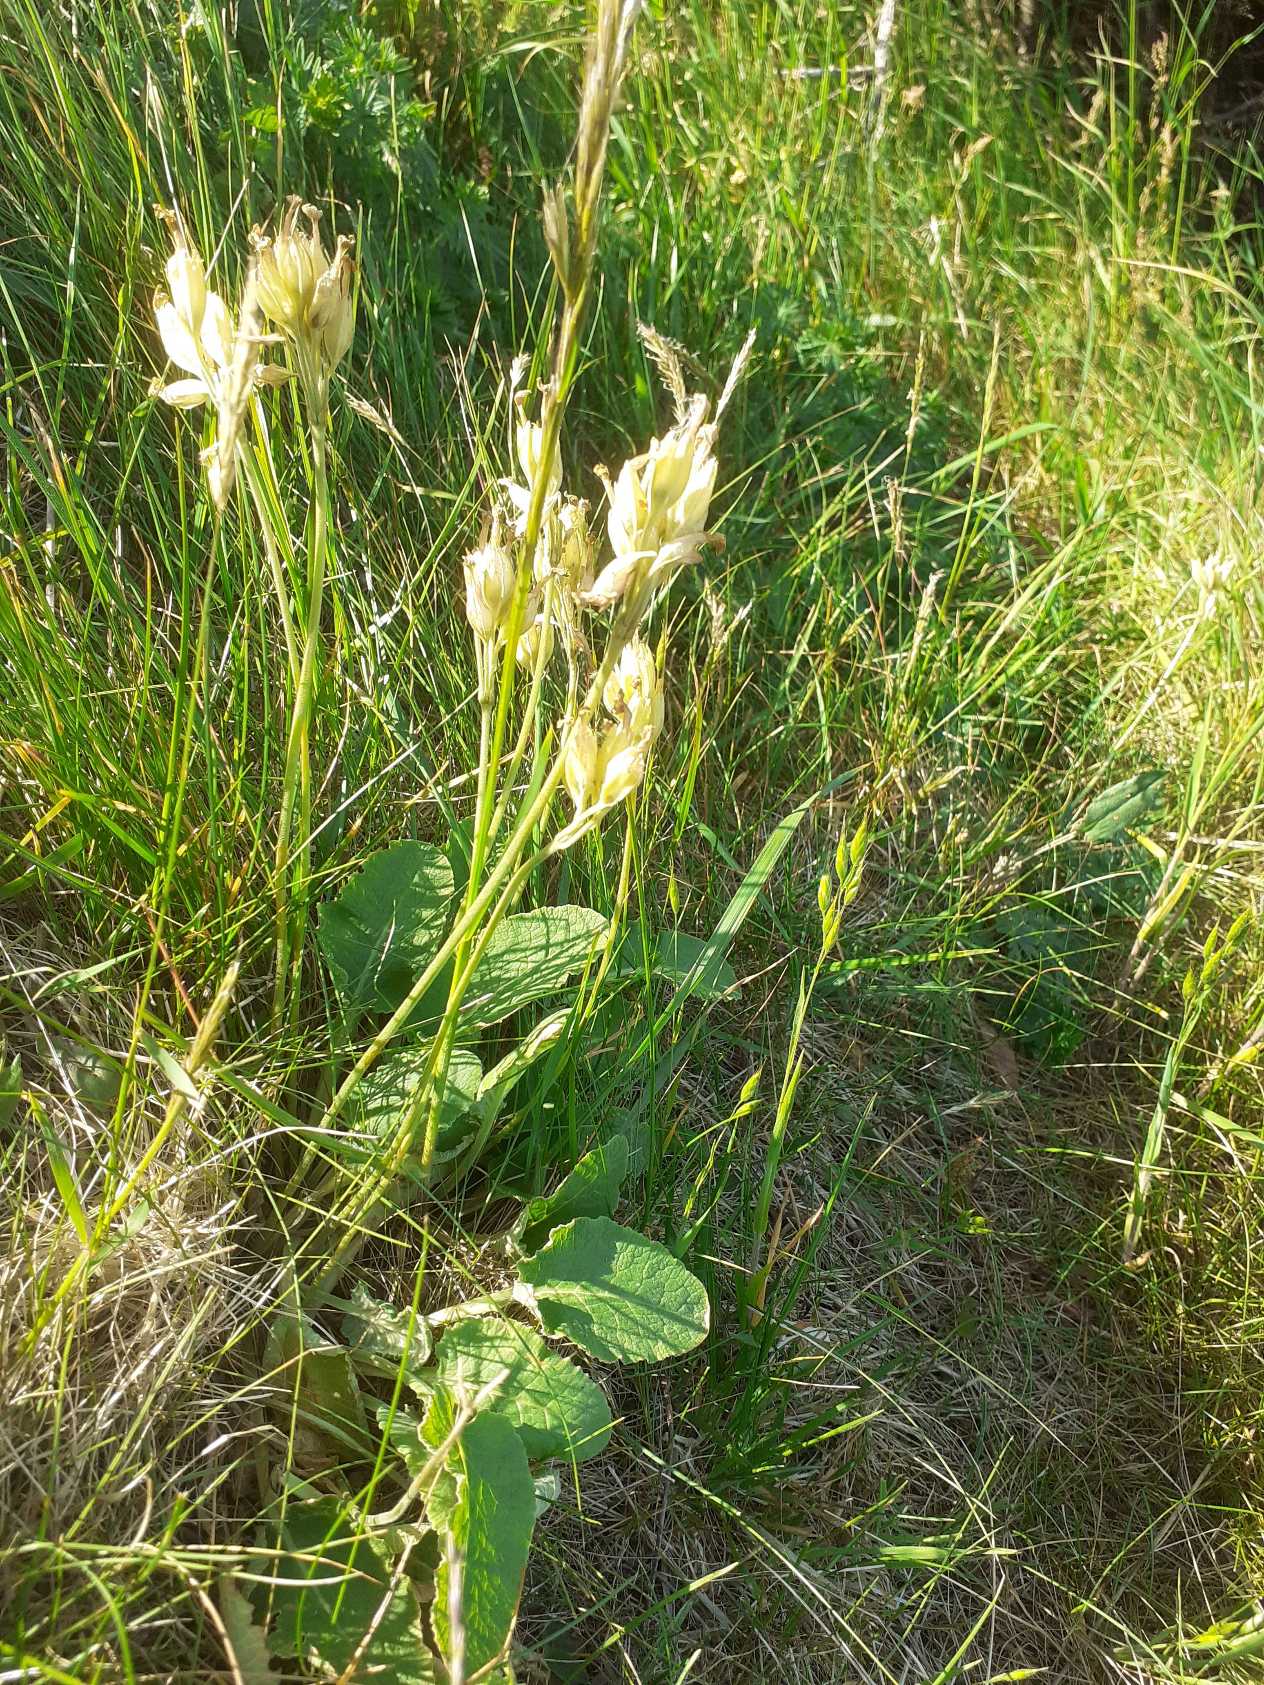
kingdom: Plantae
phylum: Tracheophyta
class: Magnoliopsida
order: Ericales
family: Primulaceae
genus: Primula
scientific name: Primula veris
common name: Hulkravet kodriver
